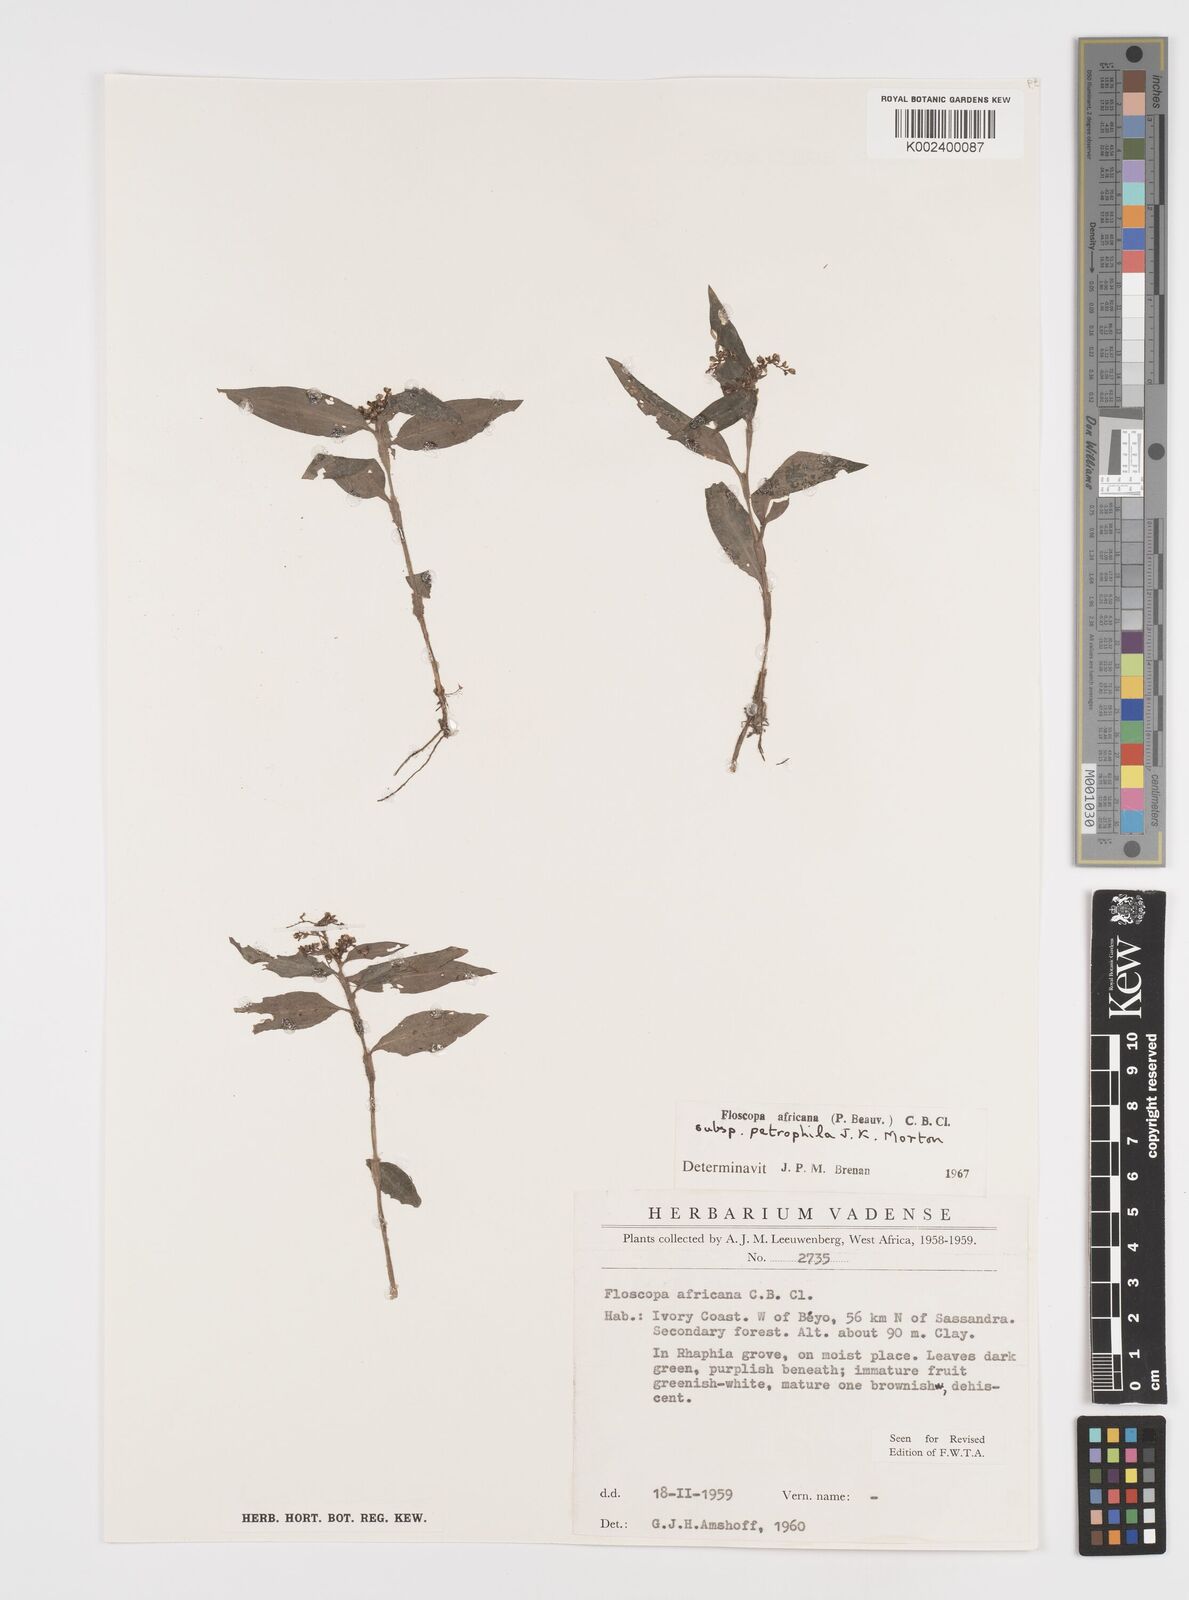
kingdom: Plantae
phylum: Tracheophyta
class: Liliopsida
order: Commelinales
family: Commelinaceae
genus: Floscopa
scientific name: Floscopa africana
